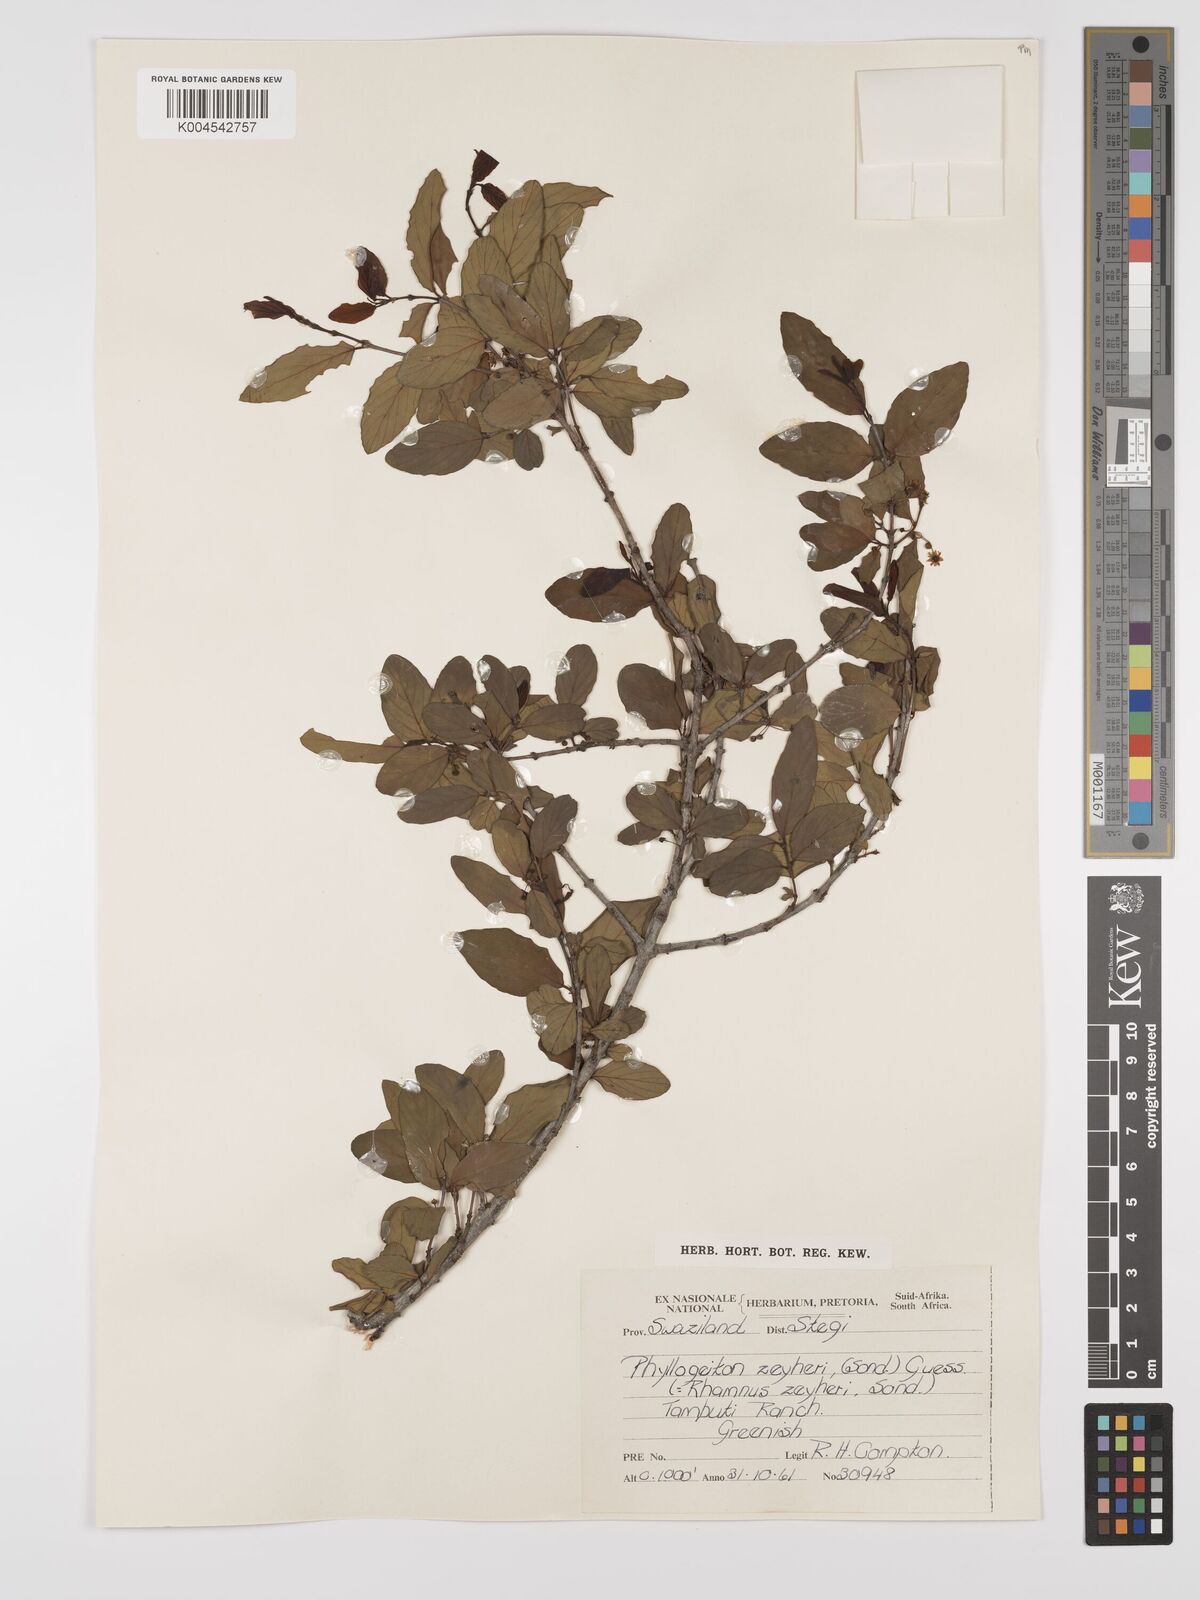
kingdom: Plantae
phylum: Tracheophyta
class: Magnoliopsida
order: Rosales
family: Rhamnaceae
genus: Phyllogeiton
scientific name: Phyllogeiton zeyheri
